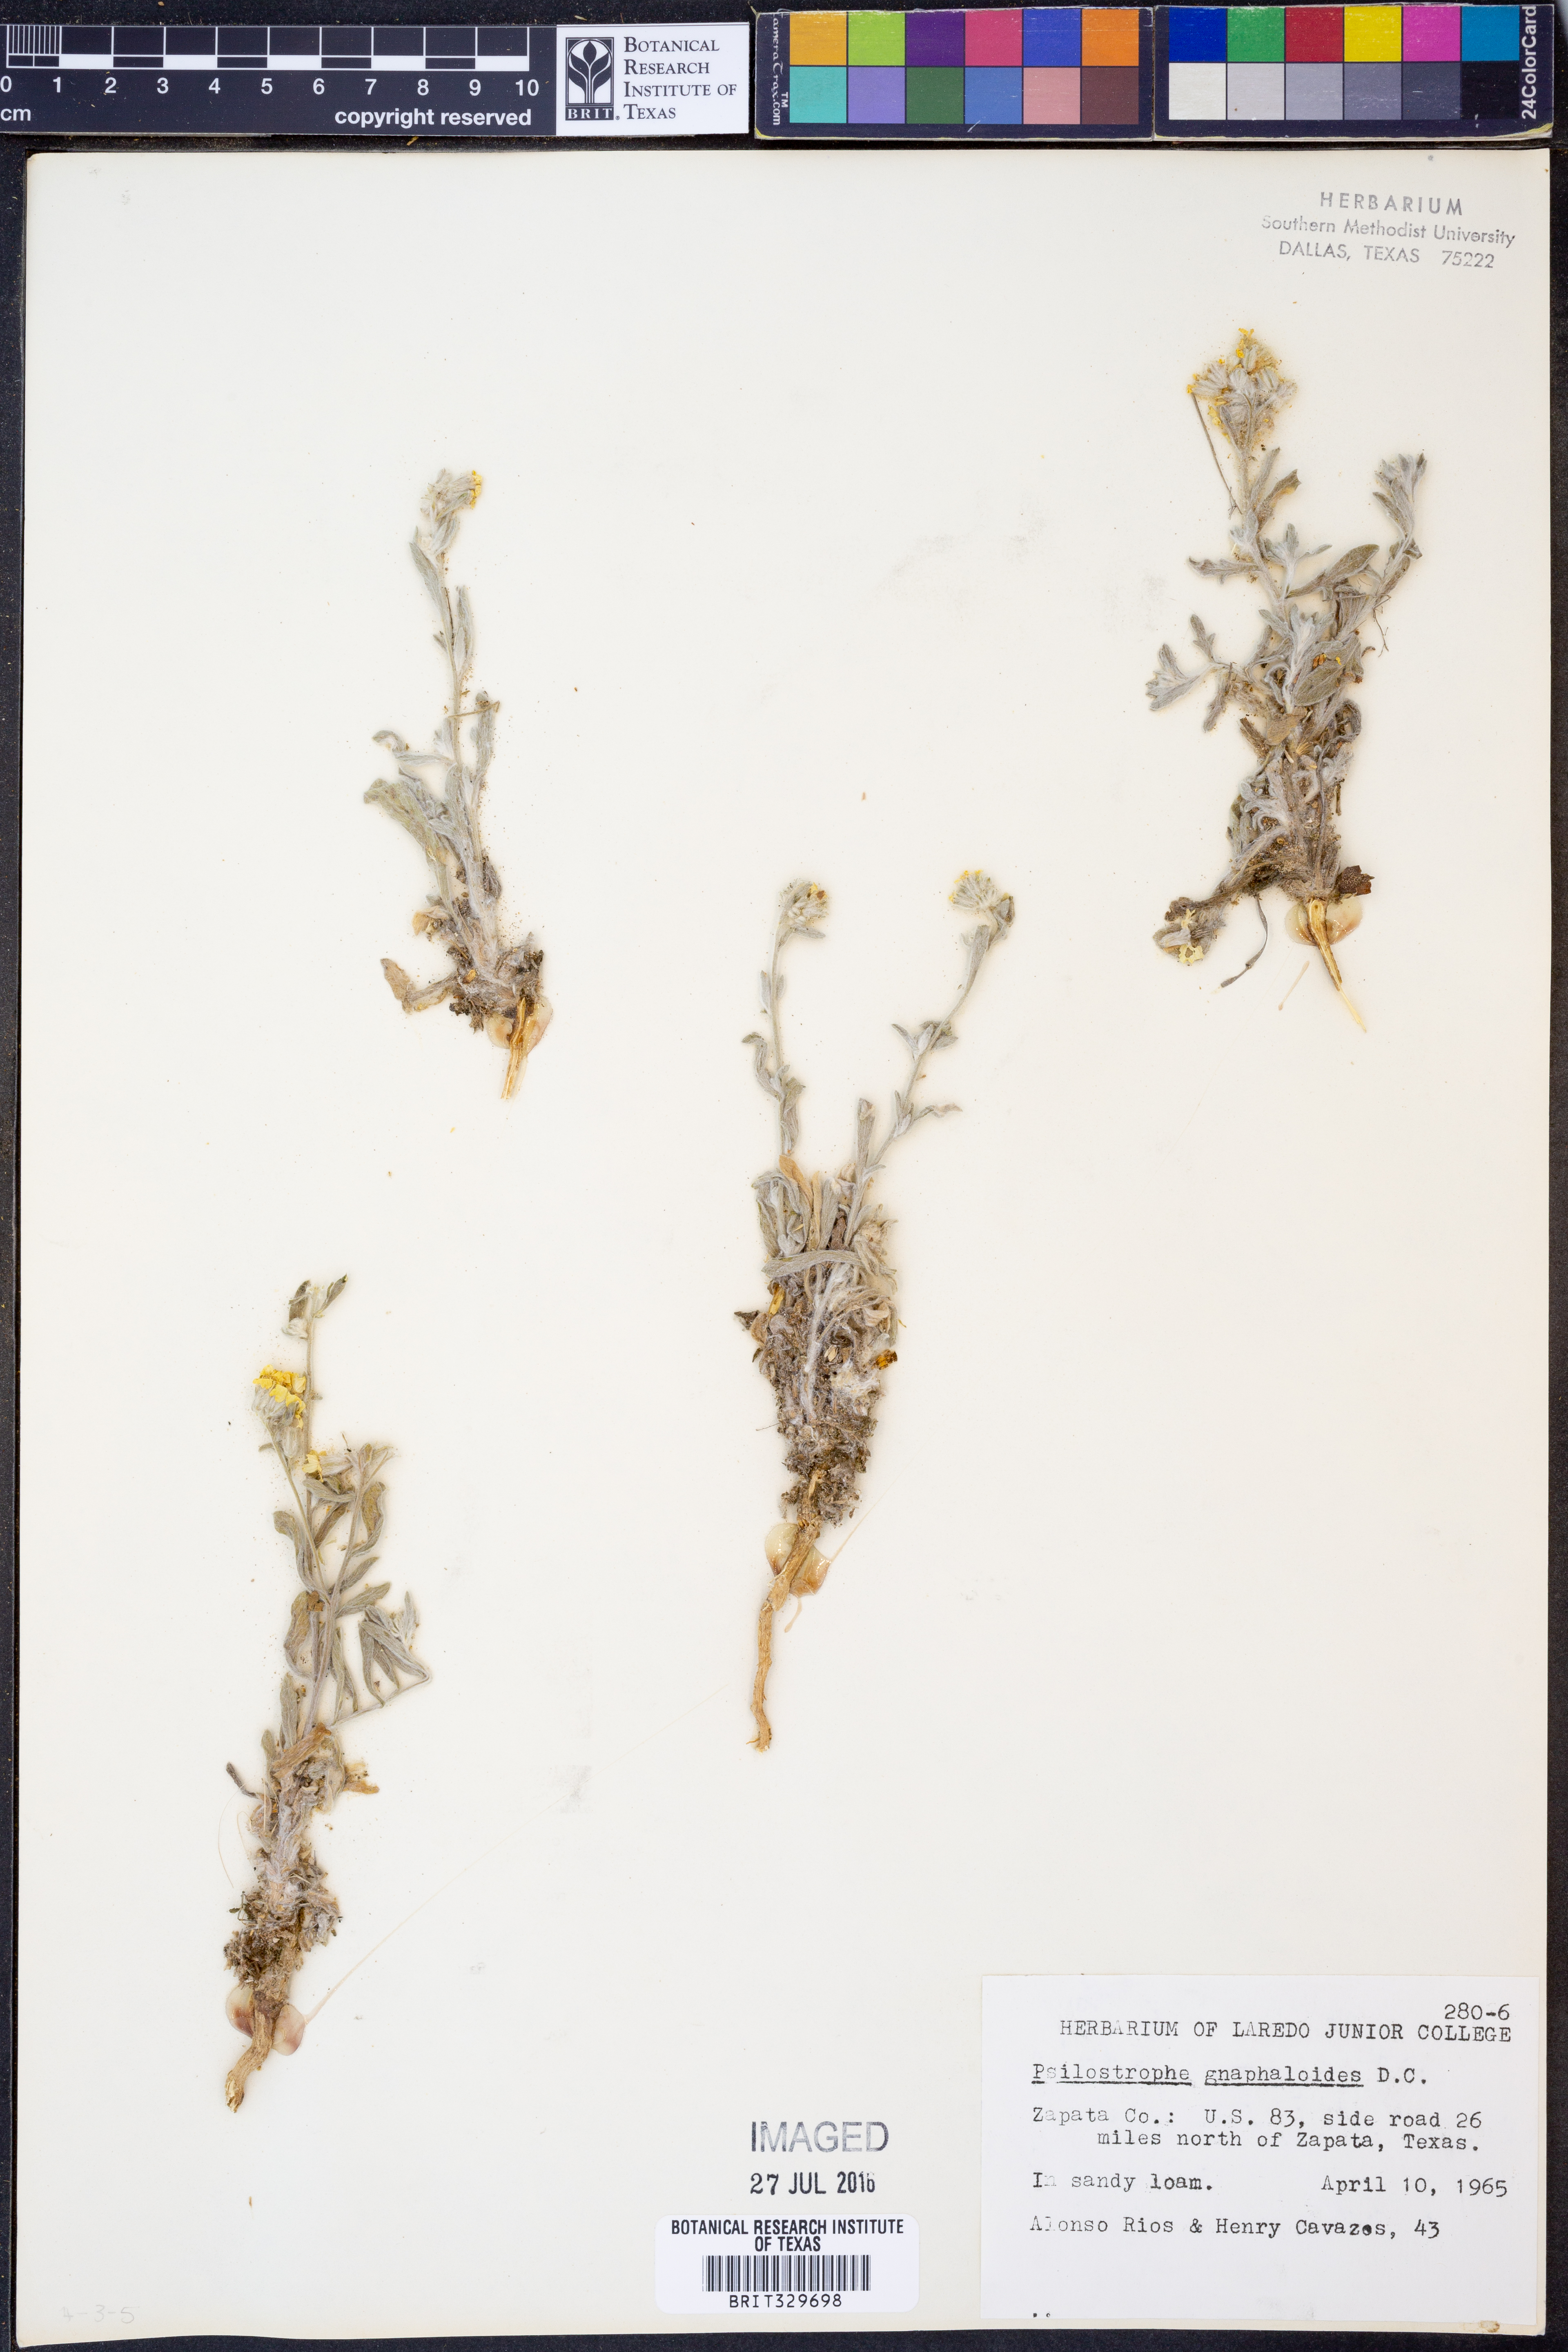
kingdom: Plantae
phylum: Tracheophyta
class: Magnoliopsida
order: Asterales
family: Asteraceae
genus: Psilostrophe
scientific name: Psilostrophe gnaphalioides
